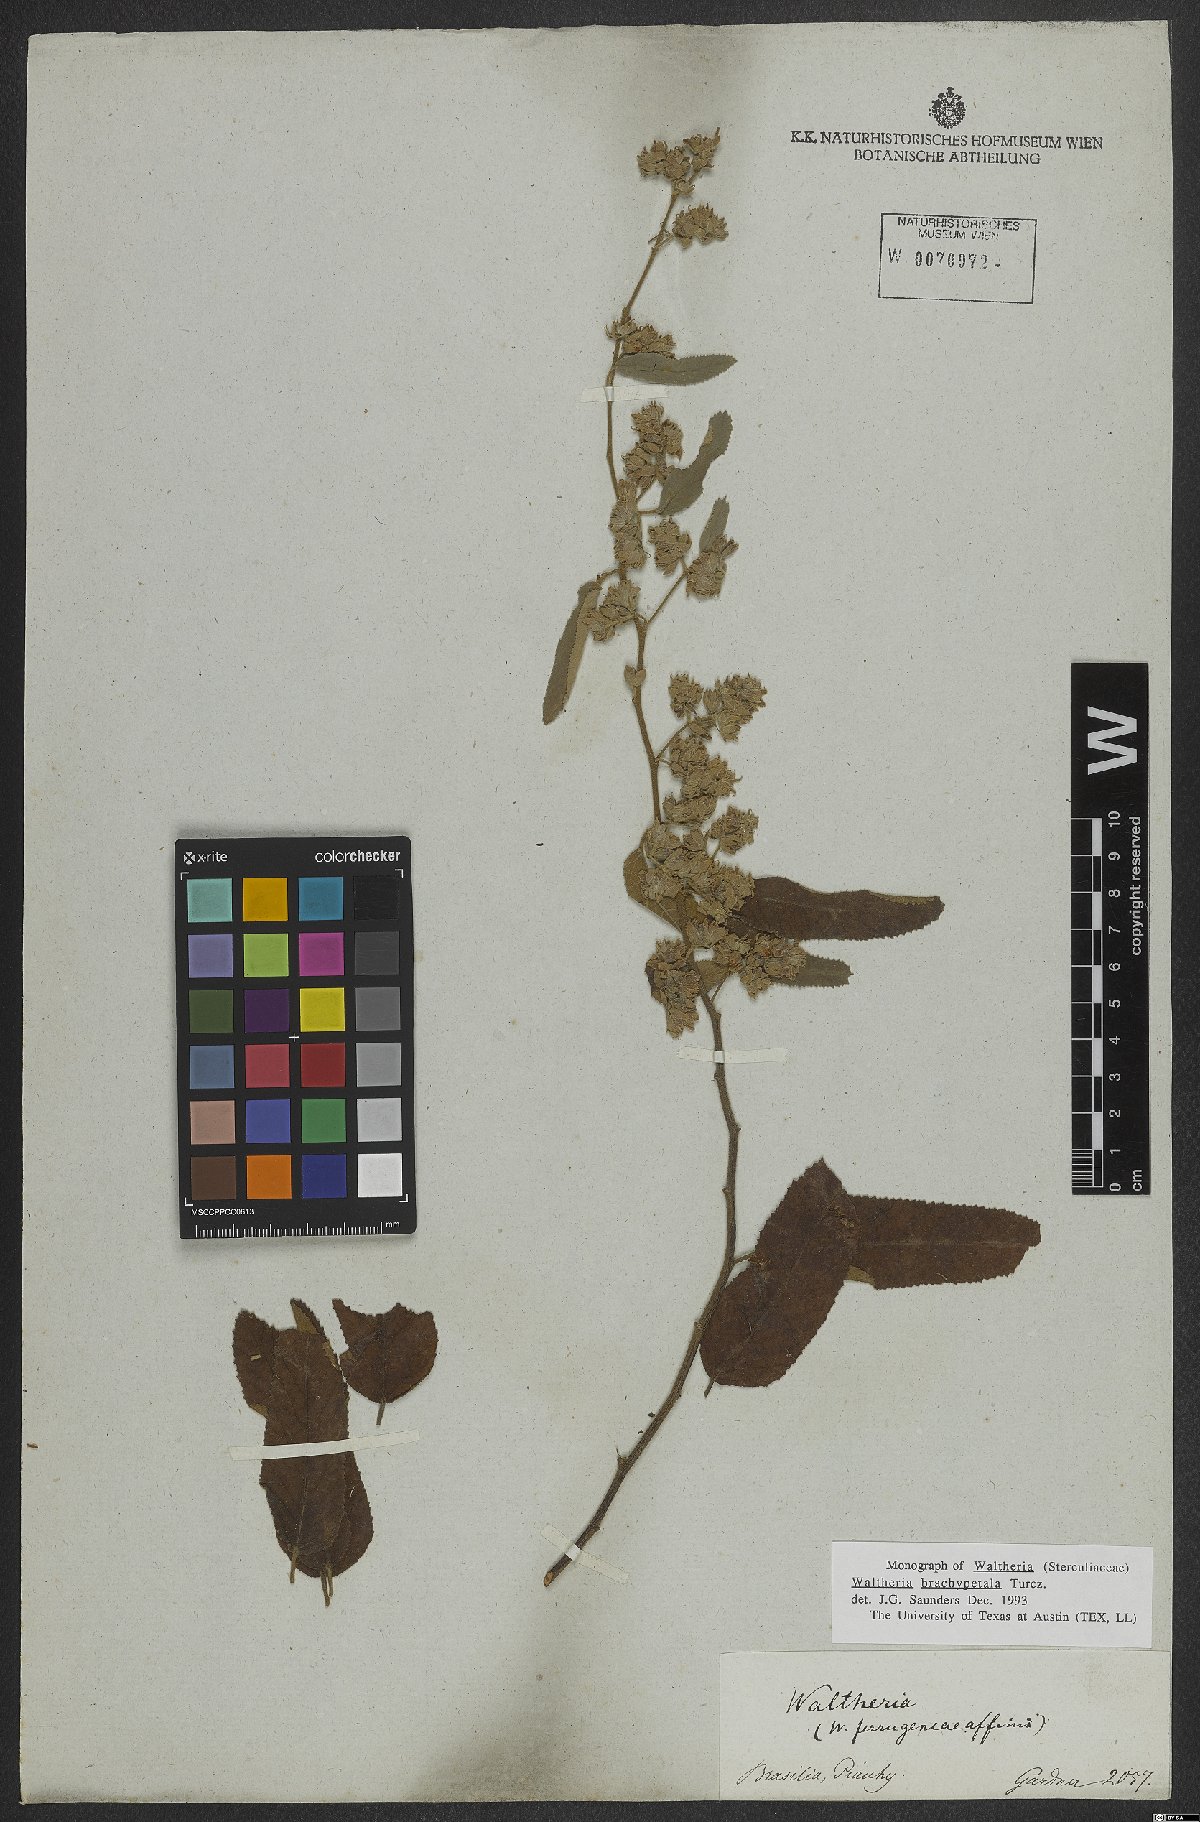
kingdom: Plantae
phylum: Tracheophyta
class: Magnoliopsida
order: Malvales
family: Malvaceae
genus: Waltheria
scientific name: Waltheria brachypetala
